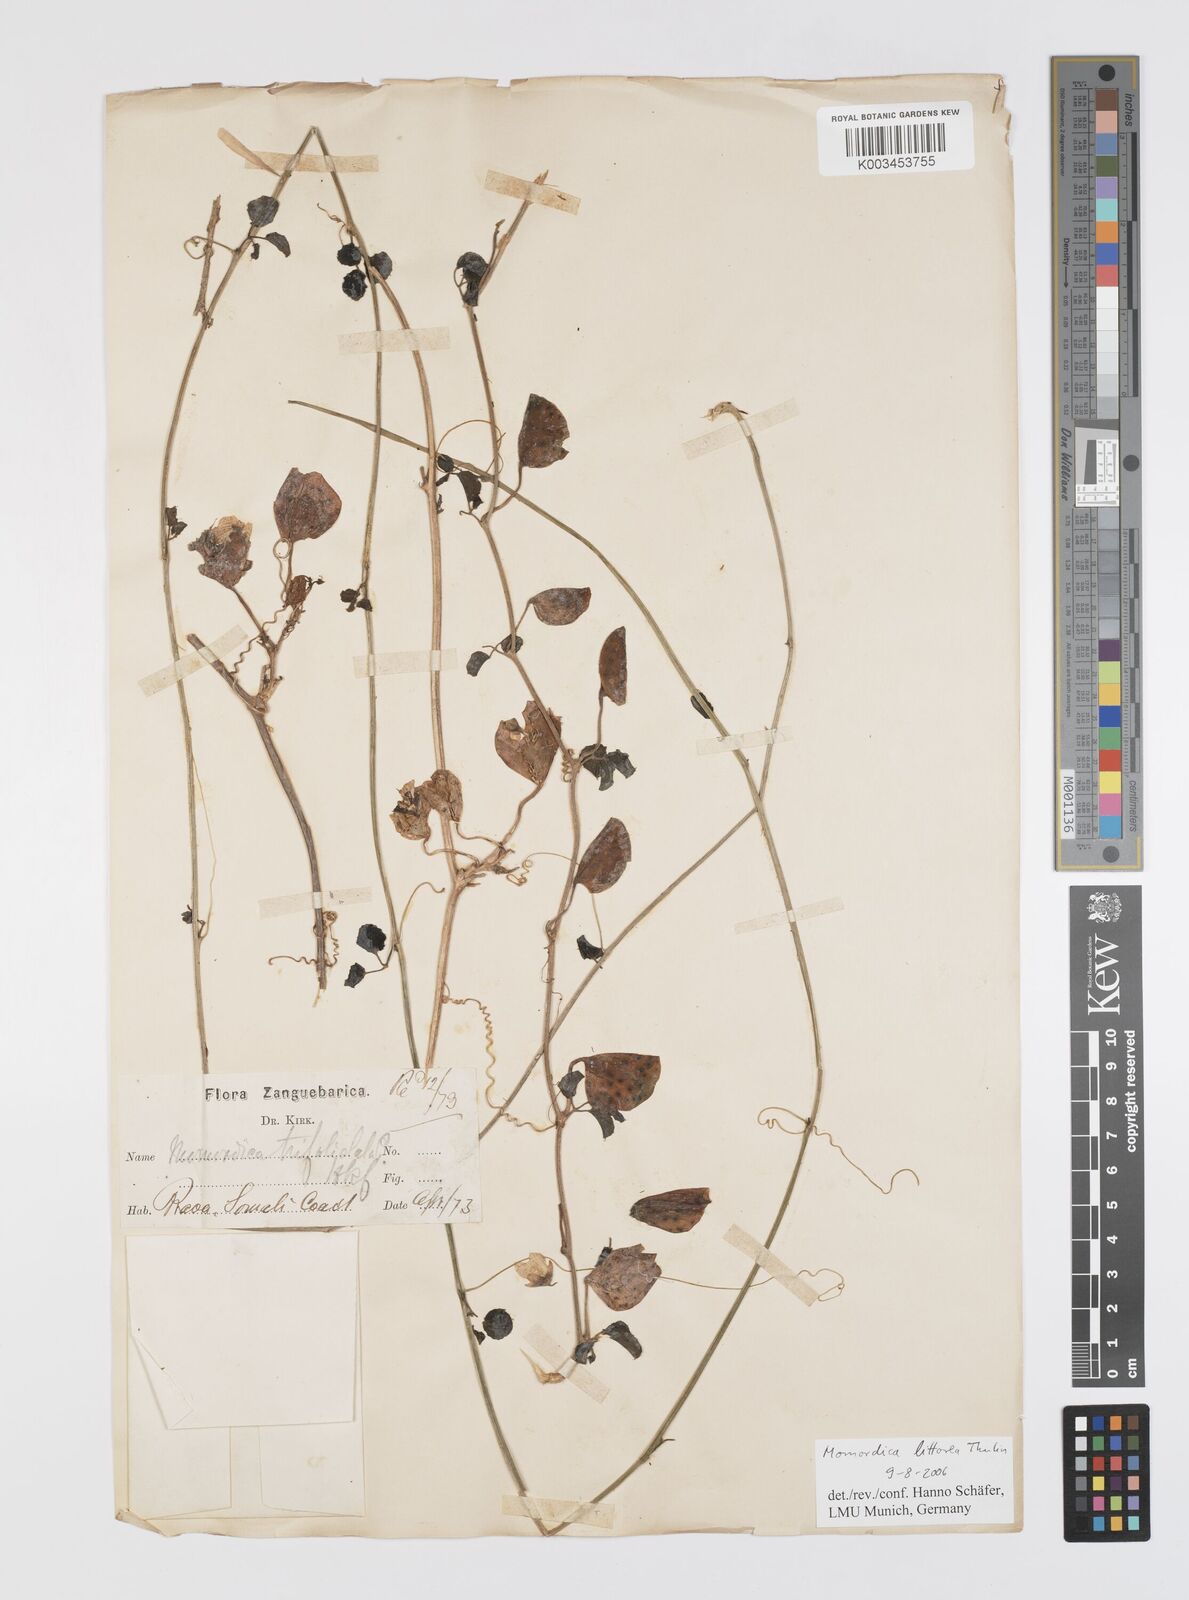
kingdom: Plantae
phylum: Tracheophyta
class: Magnoliopsida
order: Cucurbitales
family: Cucurbitaceae
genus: Momordica
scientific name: Momordica littorea
